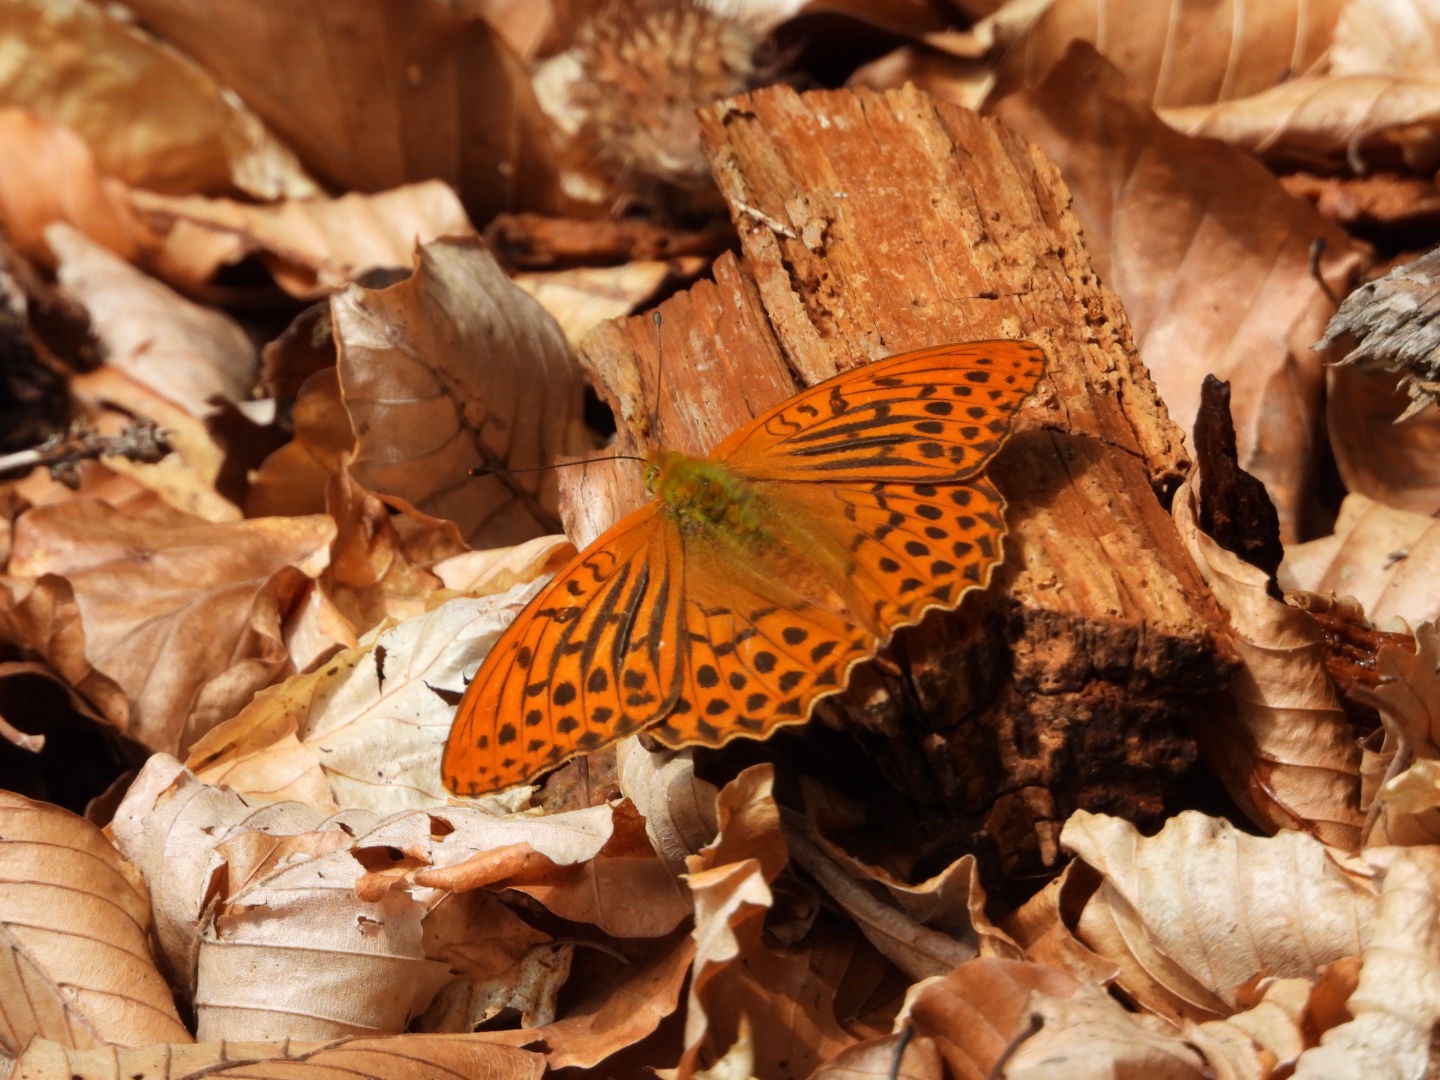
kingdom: Animalia
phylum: Arthropoda
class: Insecta
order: Lepidoptera
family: Nymphalidae
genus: Argynnis
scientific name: Argynnis paphia
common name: Kejserkåbe
